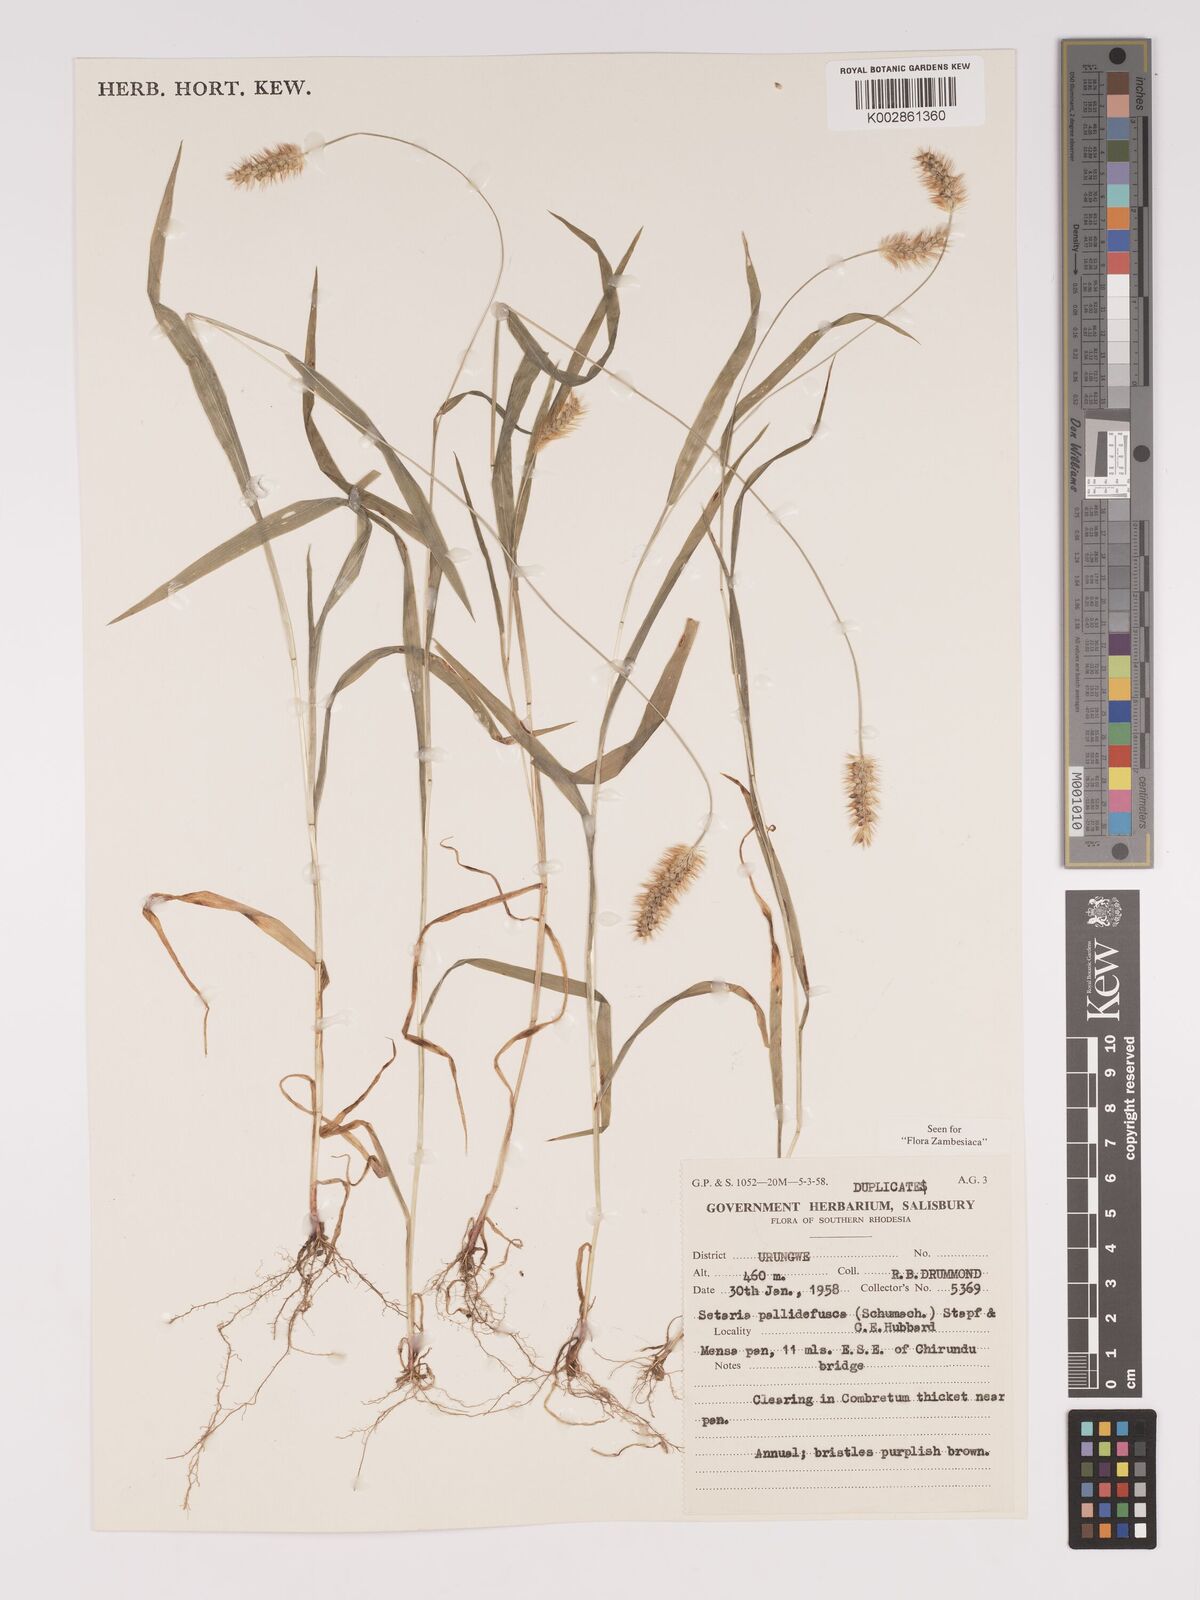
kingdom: Plantae
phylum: Tracheophyta
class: Liliopsida
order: Poales
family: Poaceae
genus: Setaria
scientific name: Setaria pumila
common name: Yellow bristle-grass
